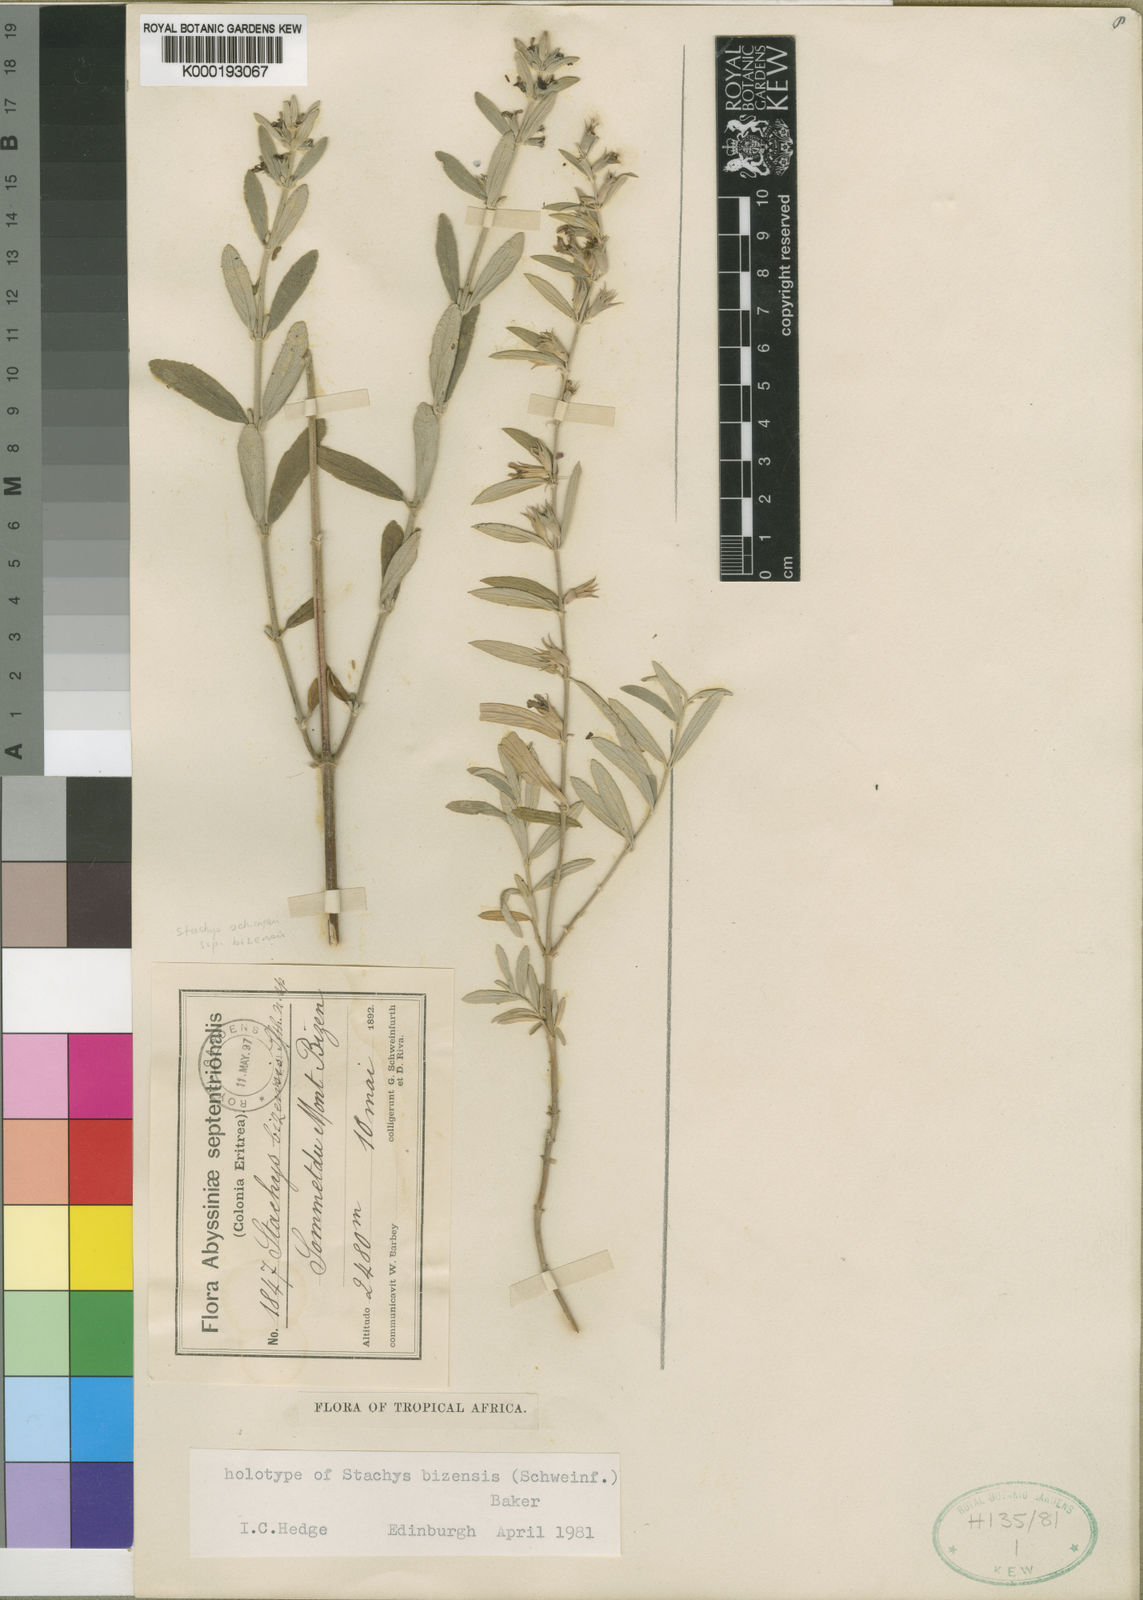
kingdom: Plantae
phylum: Tracheophyta
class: Magnoliopsida
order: Lamiales
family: Lamiaceae
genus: Stachys
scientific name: Stachys bizensis
